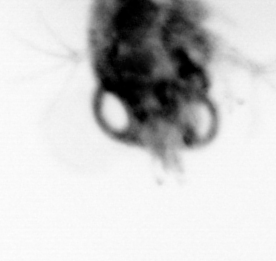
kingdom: Animalia
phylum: Arthropoda
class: Malacostraca
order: Decapoda
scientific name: Decapoda
